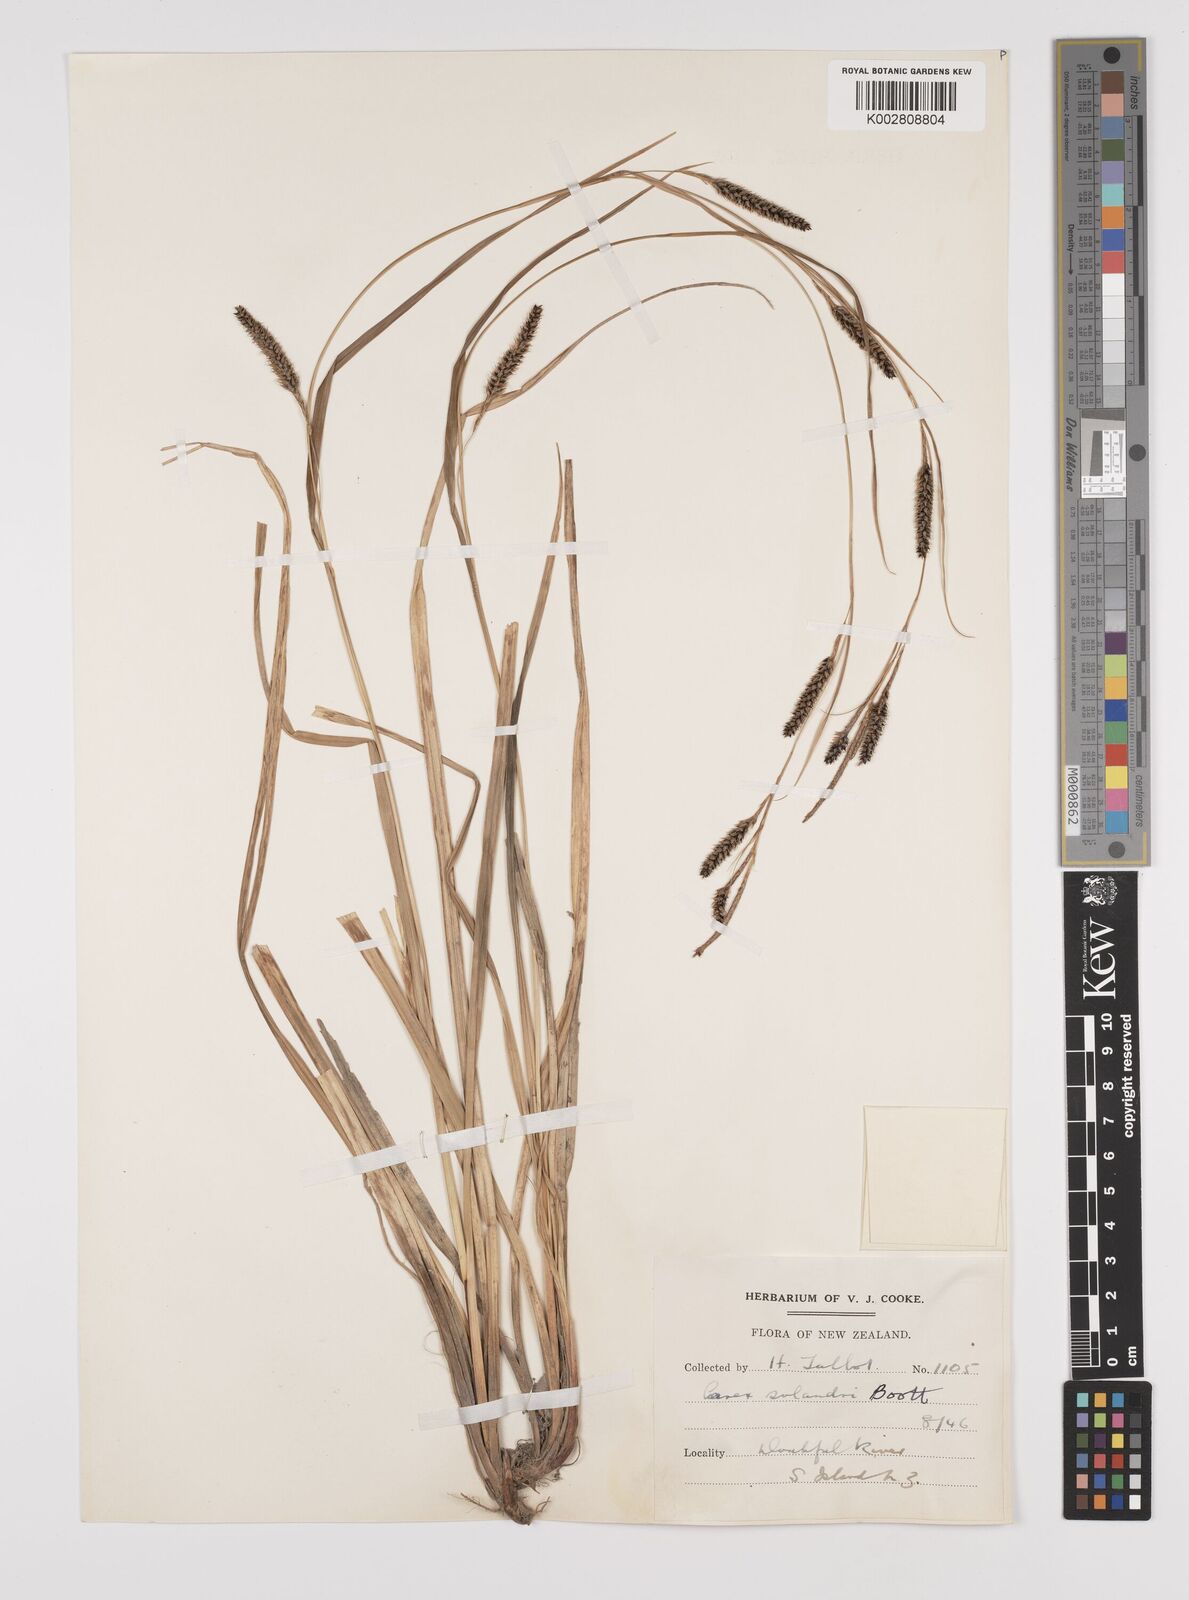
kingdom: Plantae
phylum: Tracheophyta
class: Liliopsida
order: Poales
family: Cyperaceae
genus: Carex
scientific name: Carex dissita
